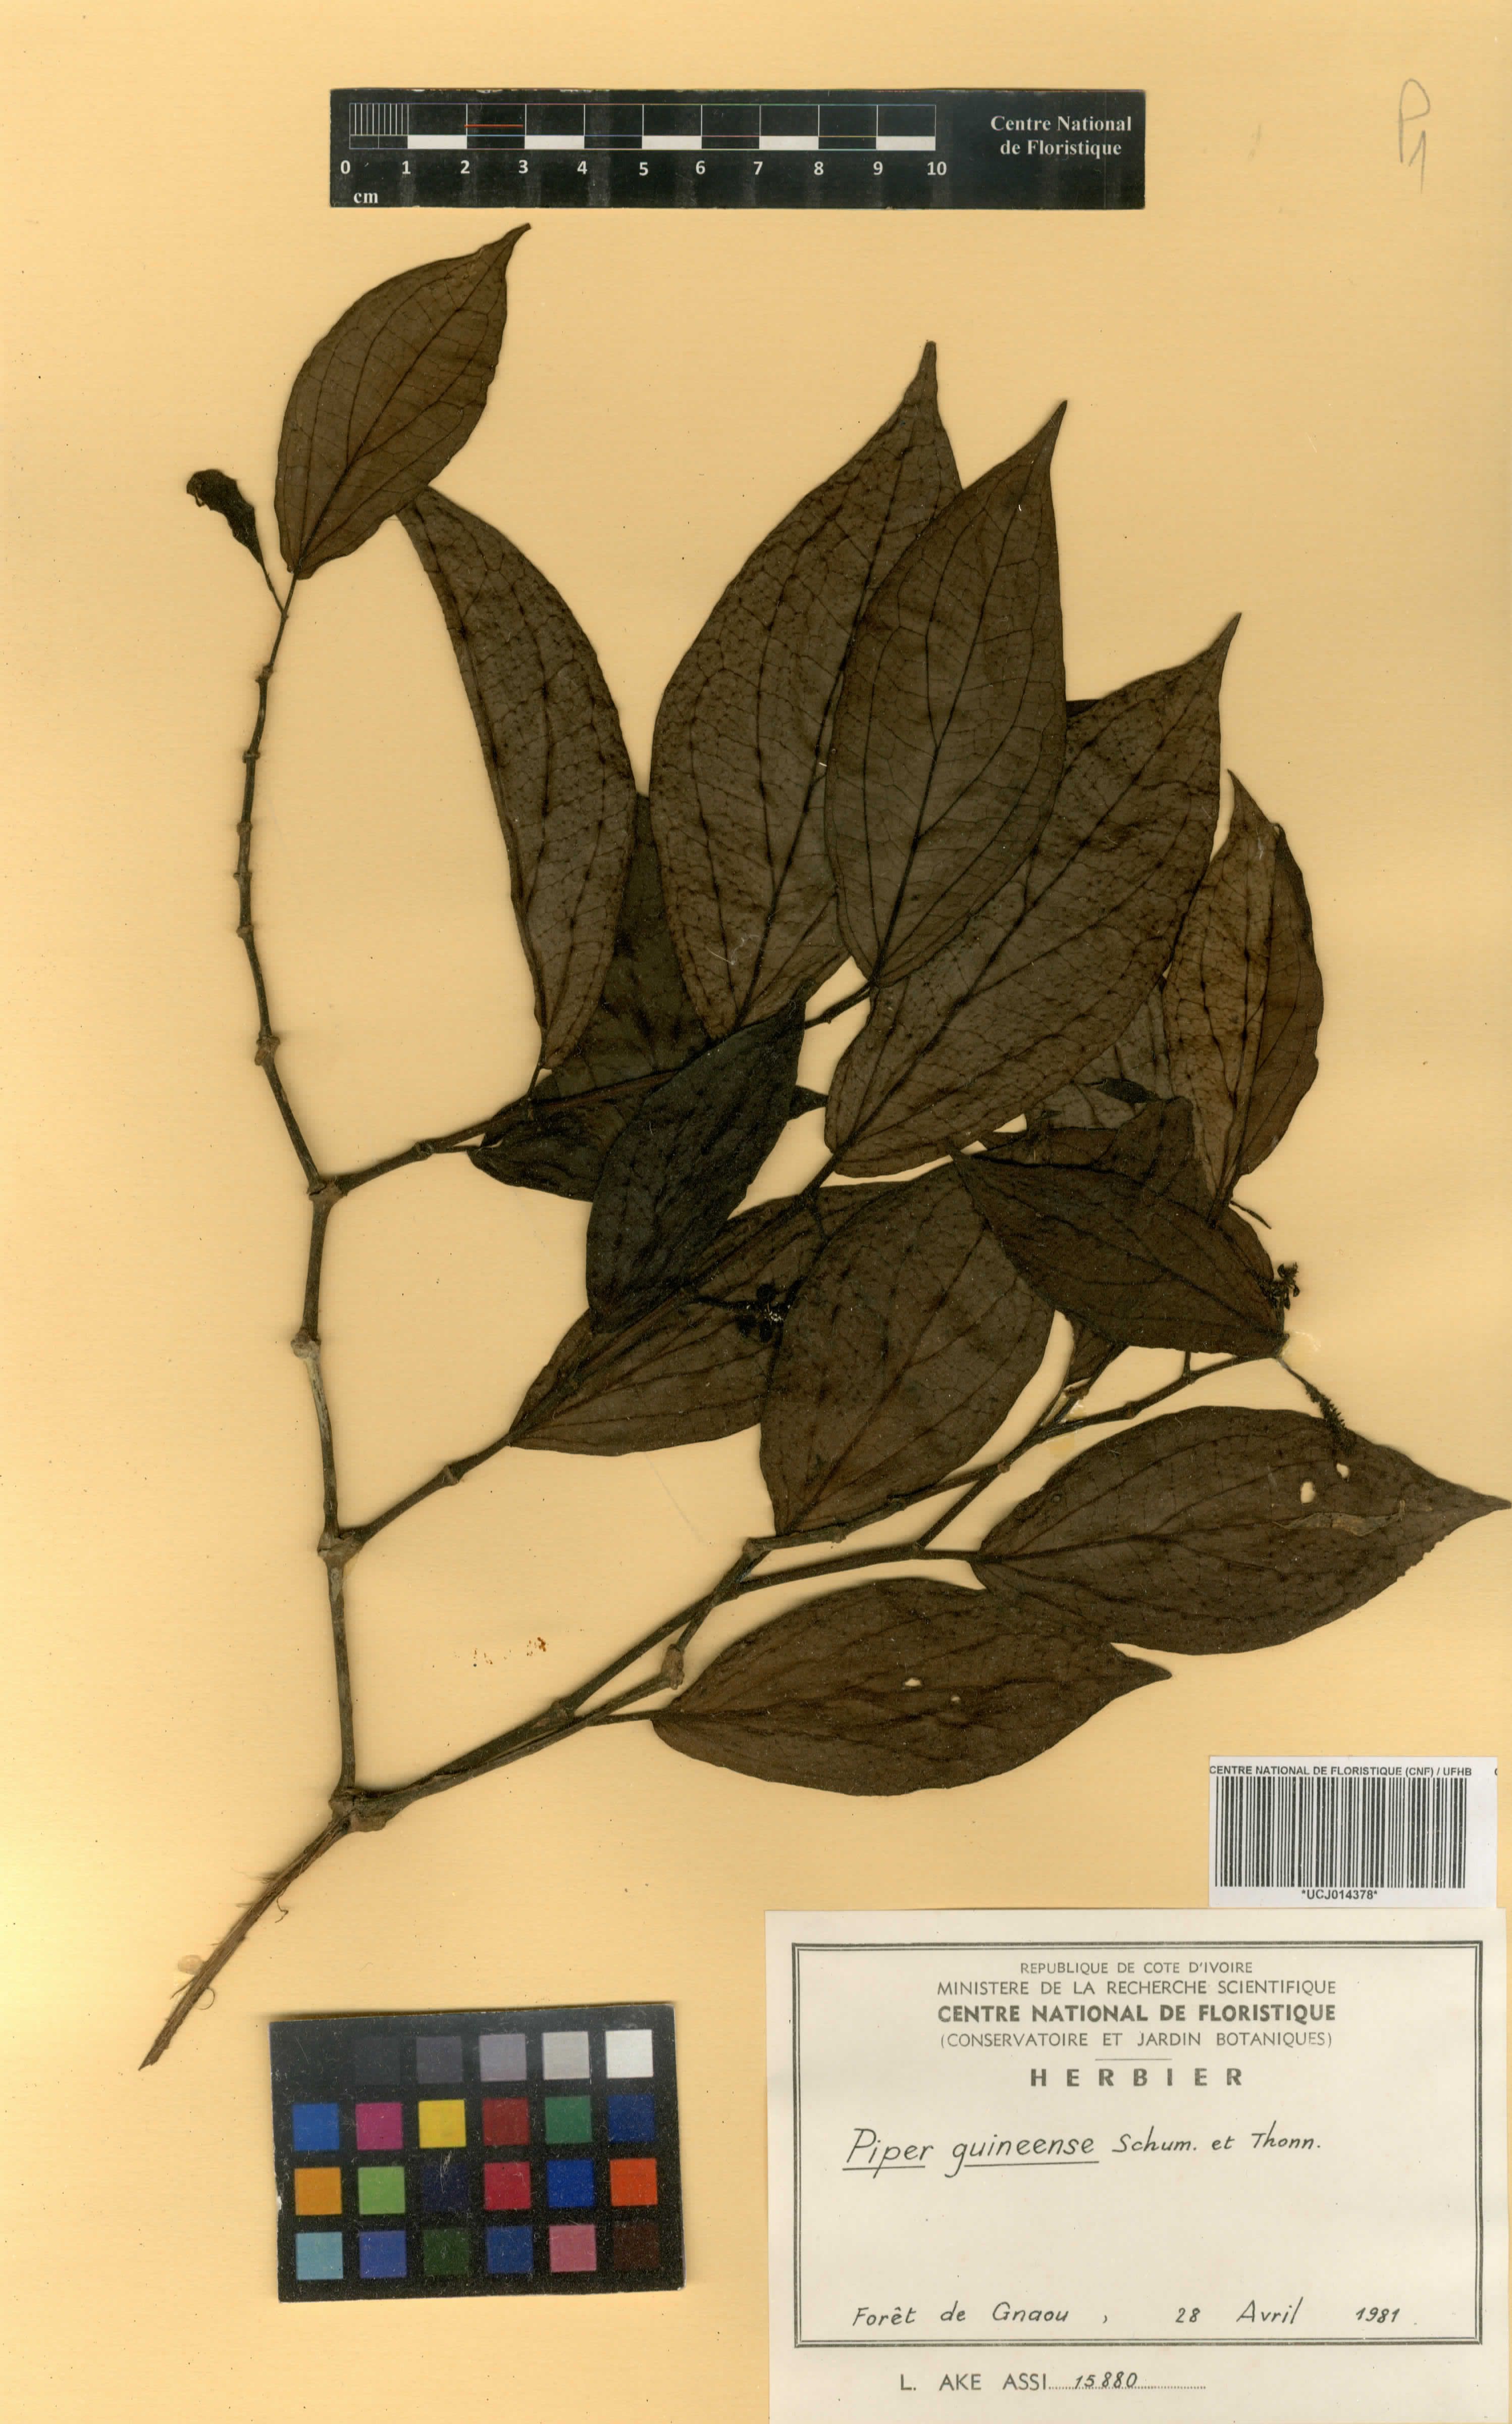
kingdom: Plantae
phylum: Tracheophyta
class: Magnoliopsida
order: Piperales
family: Piperaceae
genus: Piper
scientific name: Piper guineense
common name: Benin pepper
